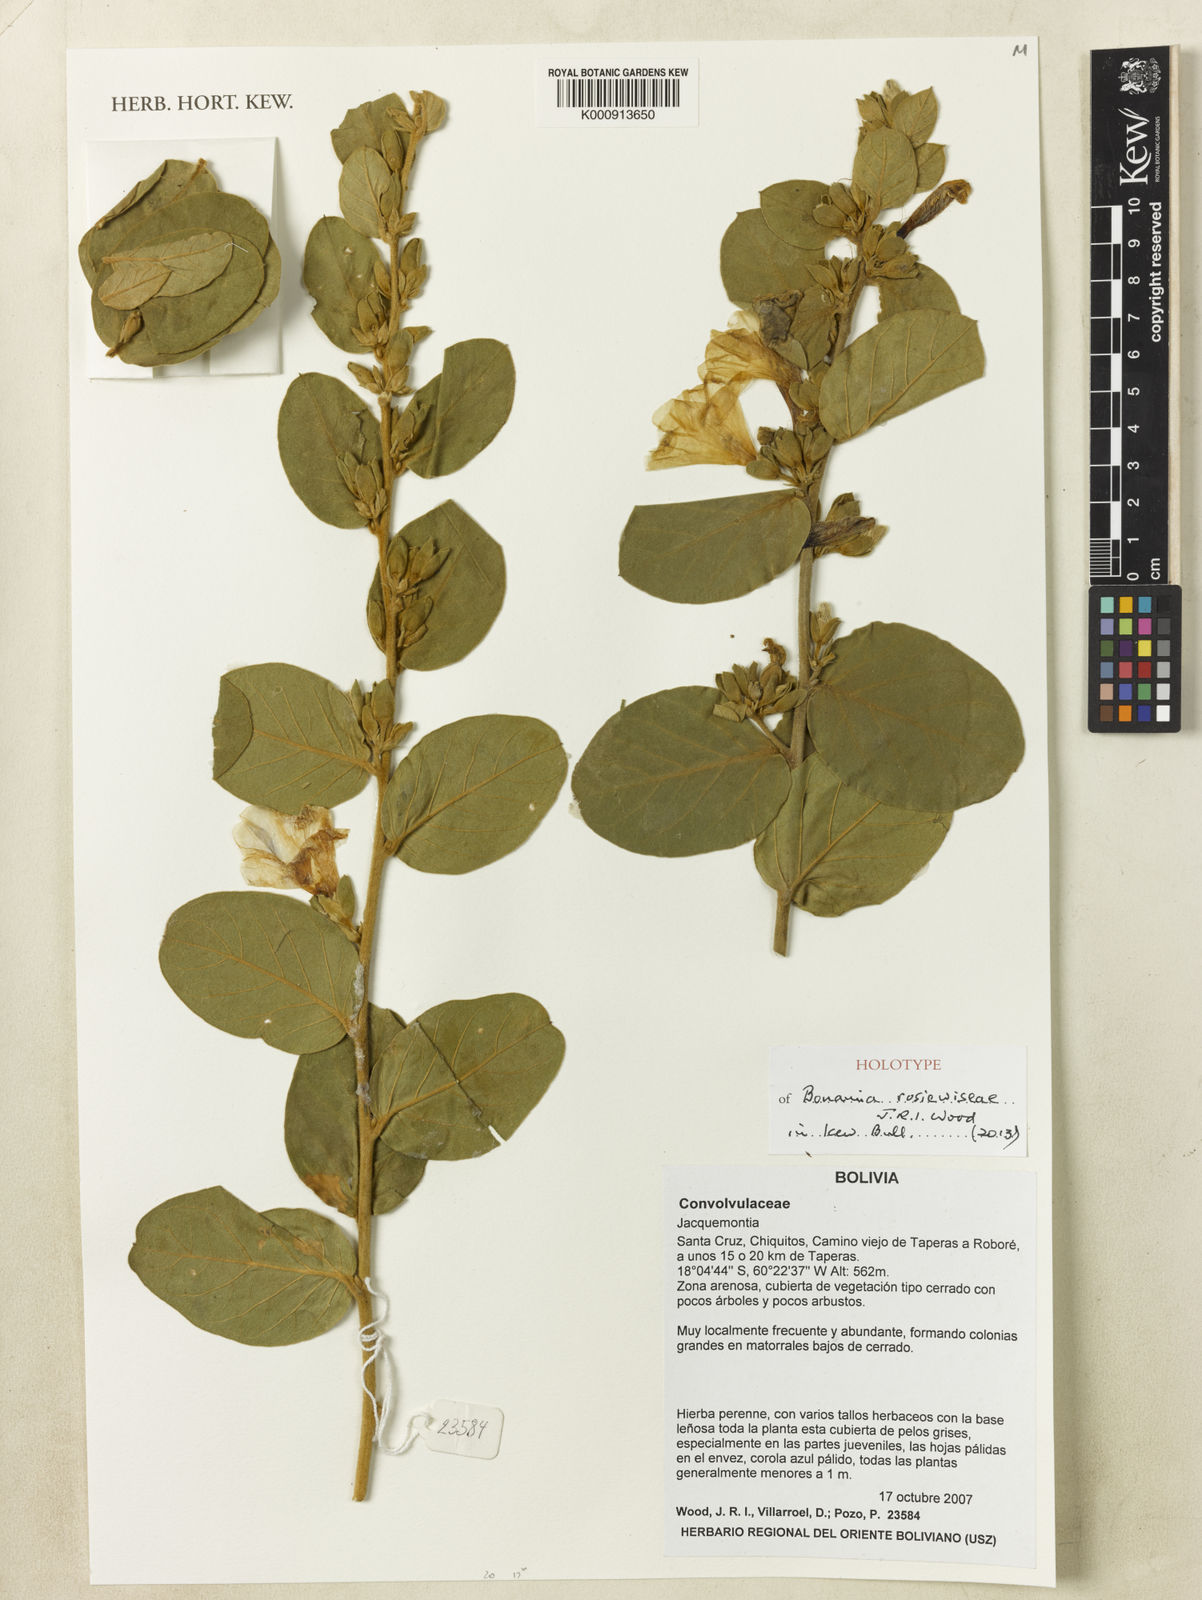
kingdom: Plantae
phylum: Tracheophyta
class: Magnoliopsida
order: Solanales
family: Convolvulaceae
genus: Bonamia
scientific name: Bonamia rosiewiseae
